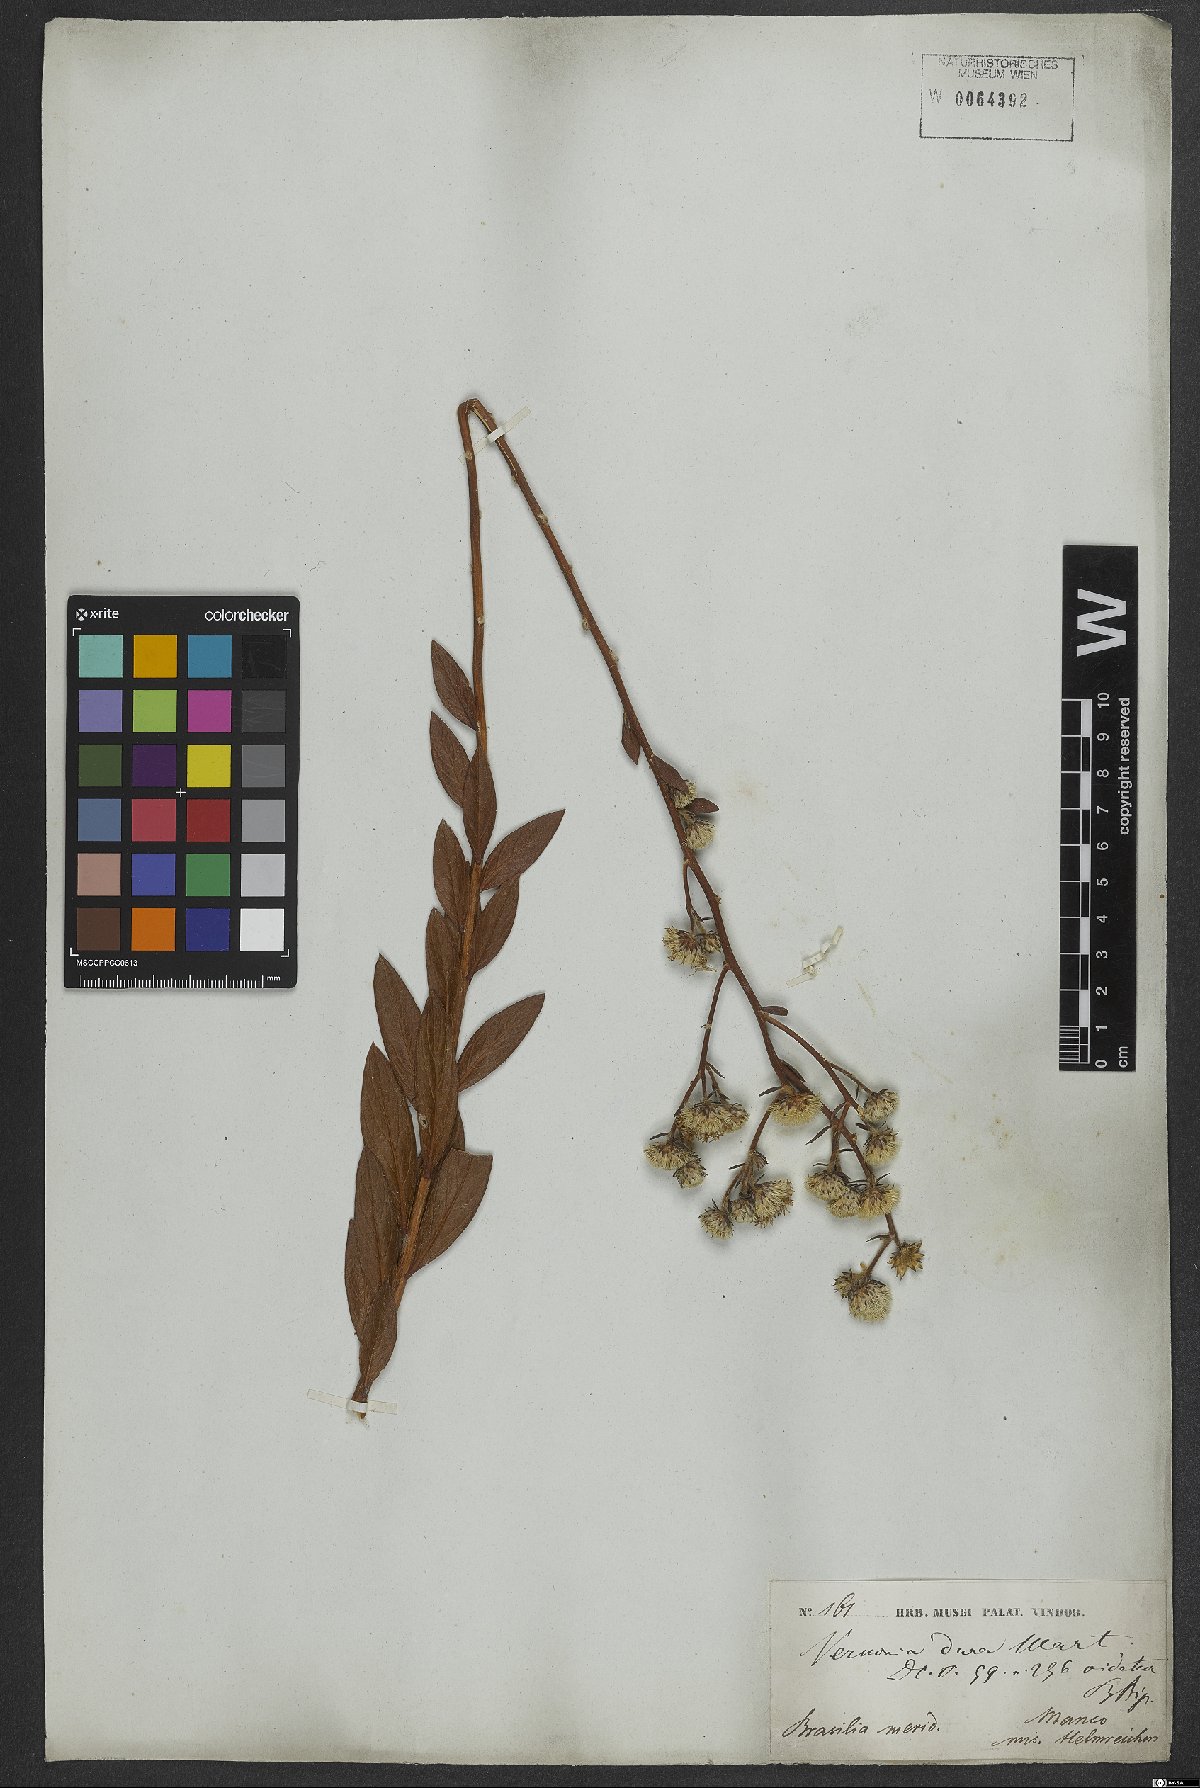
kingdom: Plantae
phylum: Tracheophyta
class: Magnoliopsida
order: Asterales
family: Asteraceae
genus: Lessingianthus
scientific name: Lessingianthus durus
